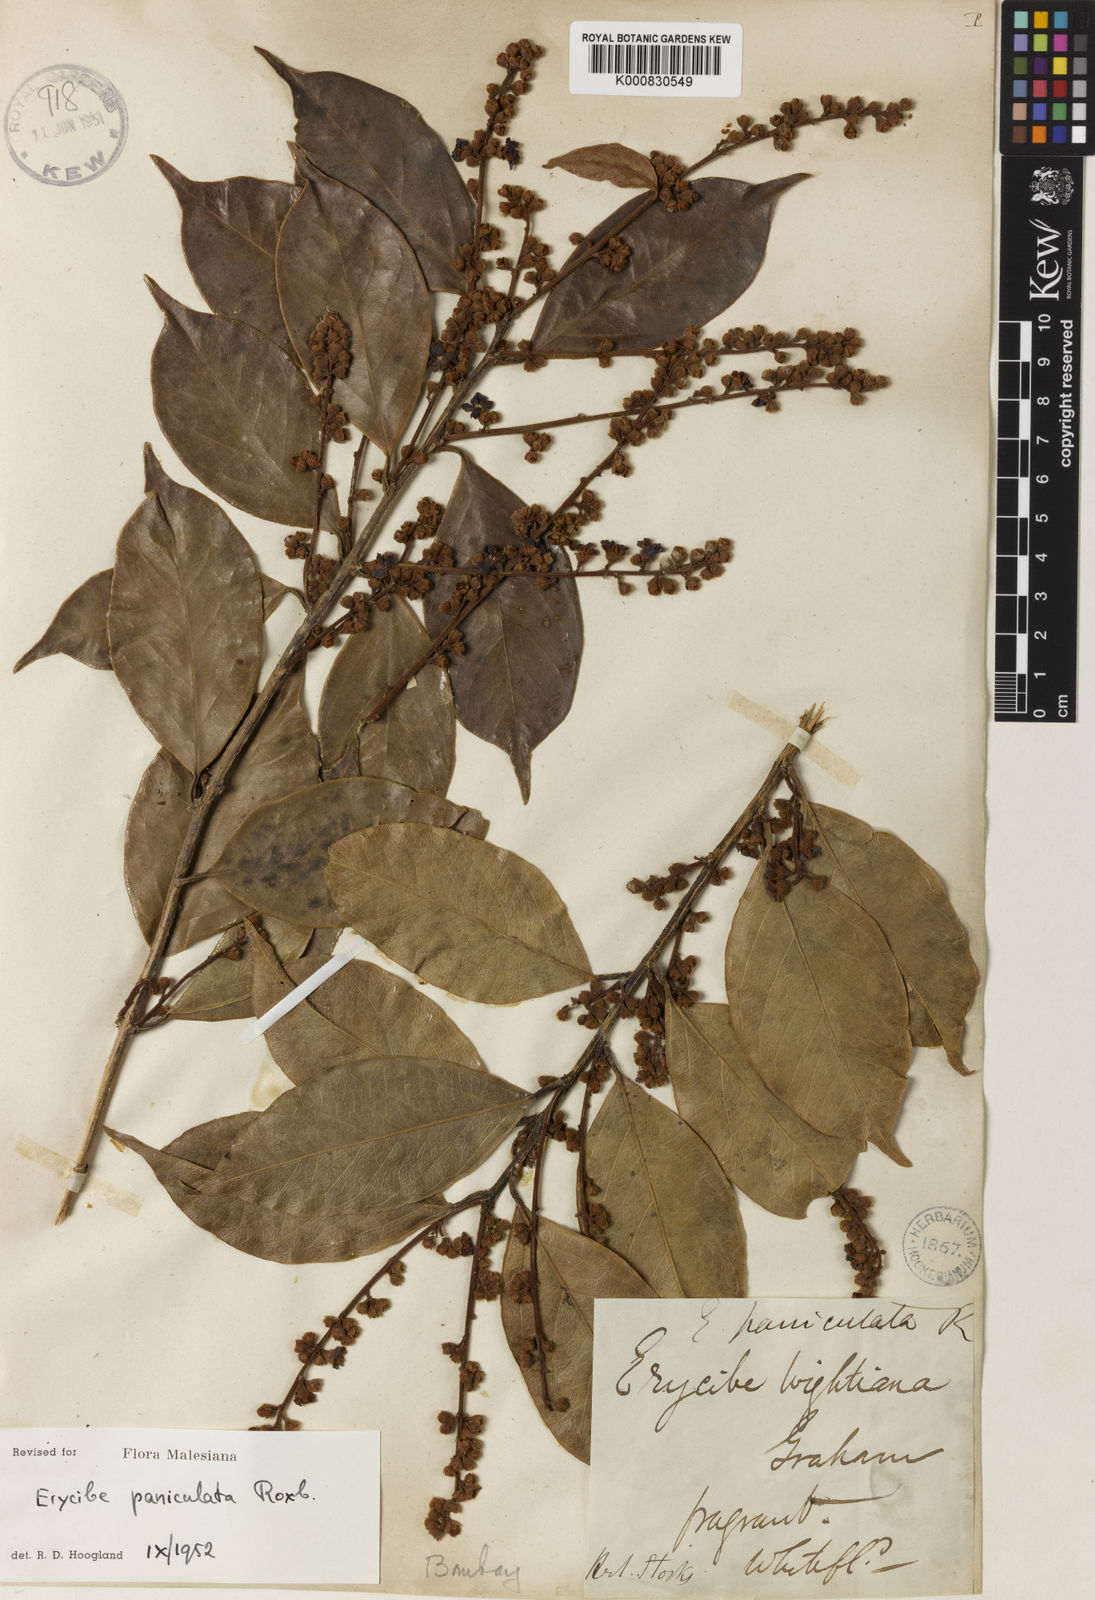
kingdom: Plantae
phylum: Tracheophyta
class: Magnoliopsida
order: Solanales
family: Convolvulaceae
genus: Erycibe
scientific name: Erycibe paniculata
